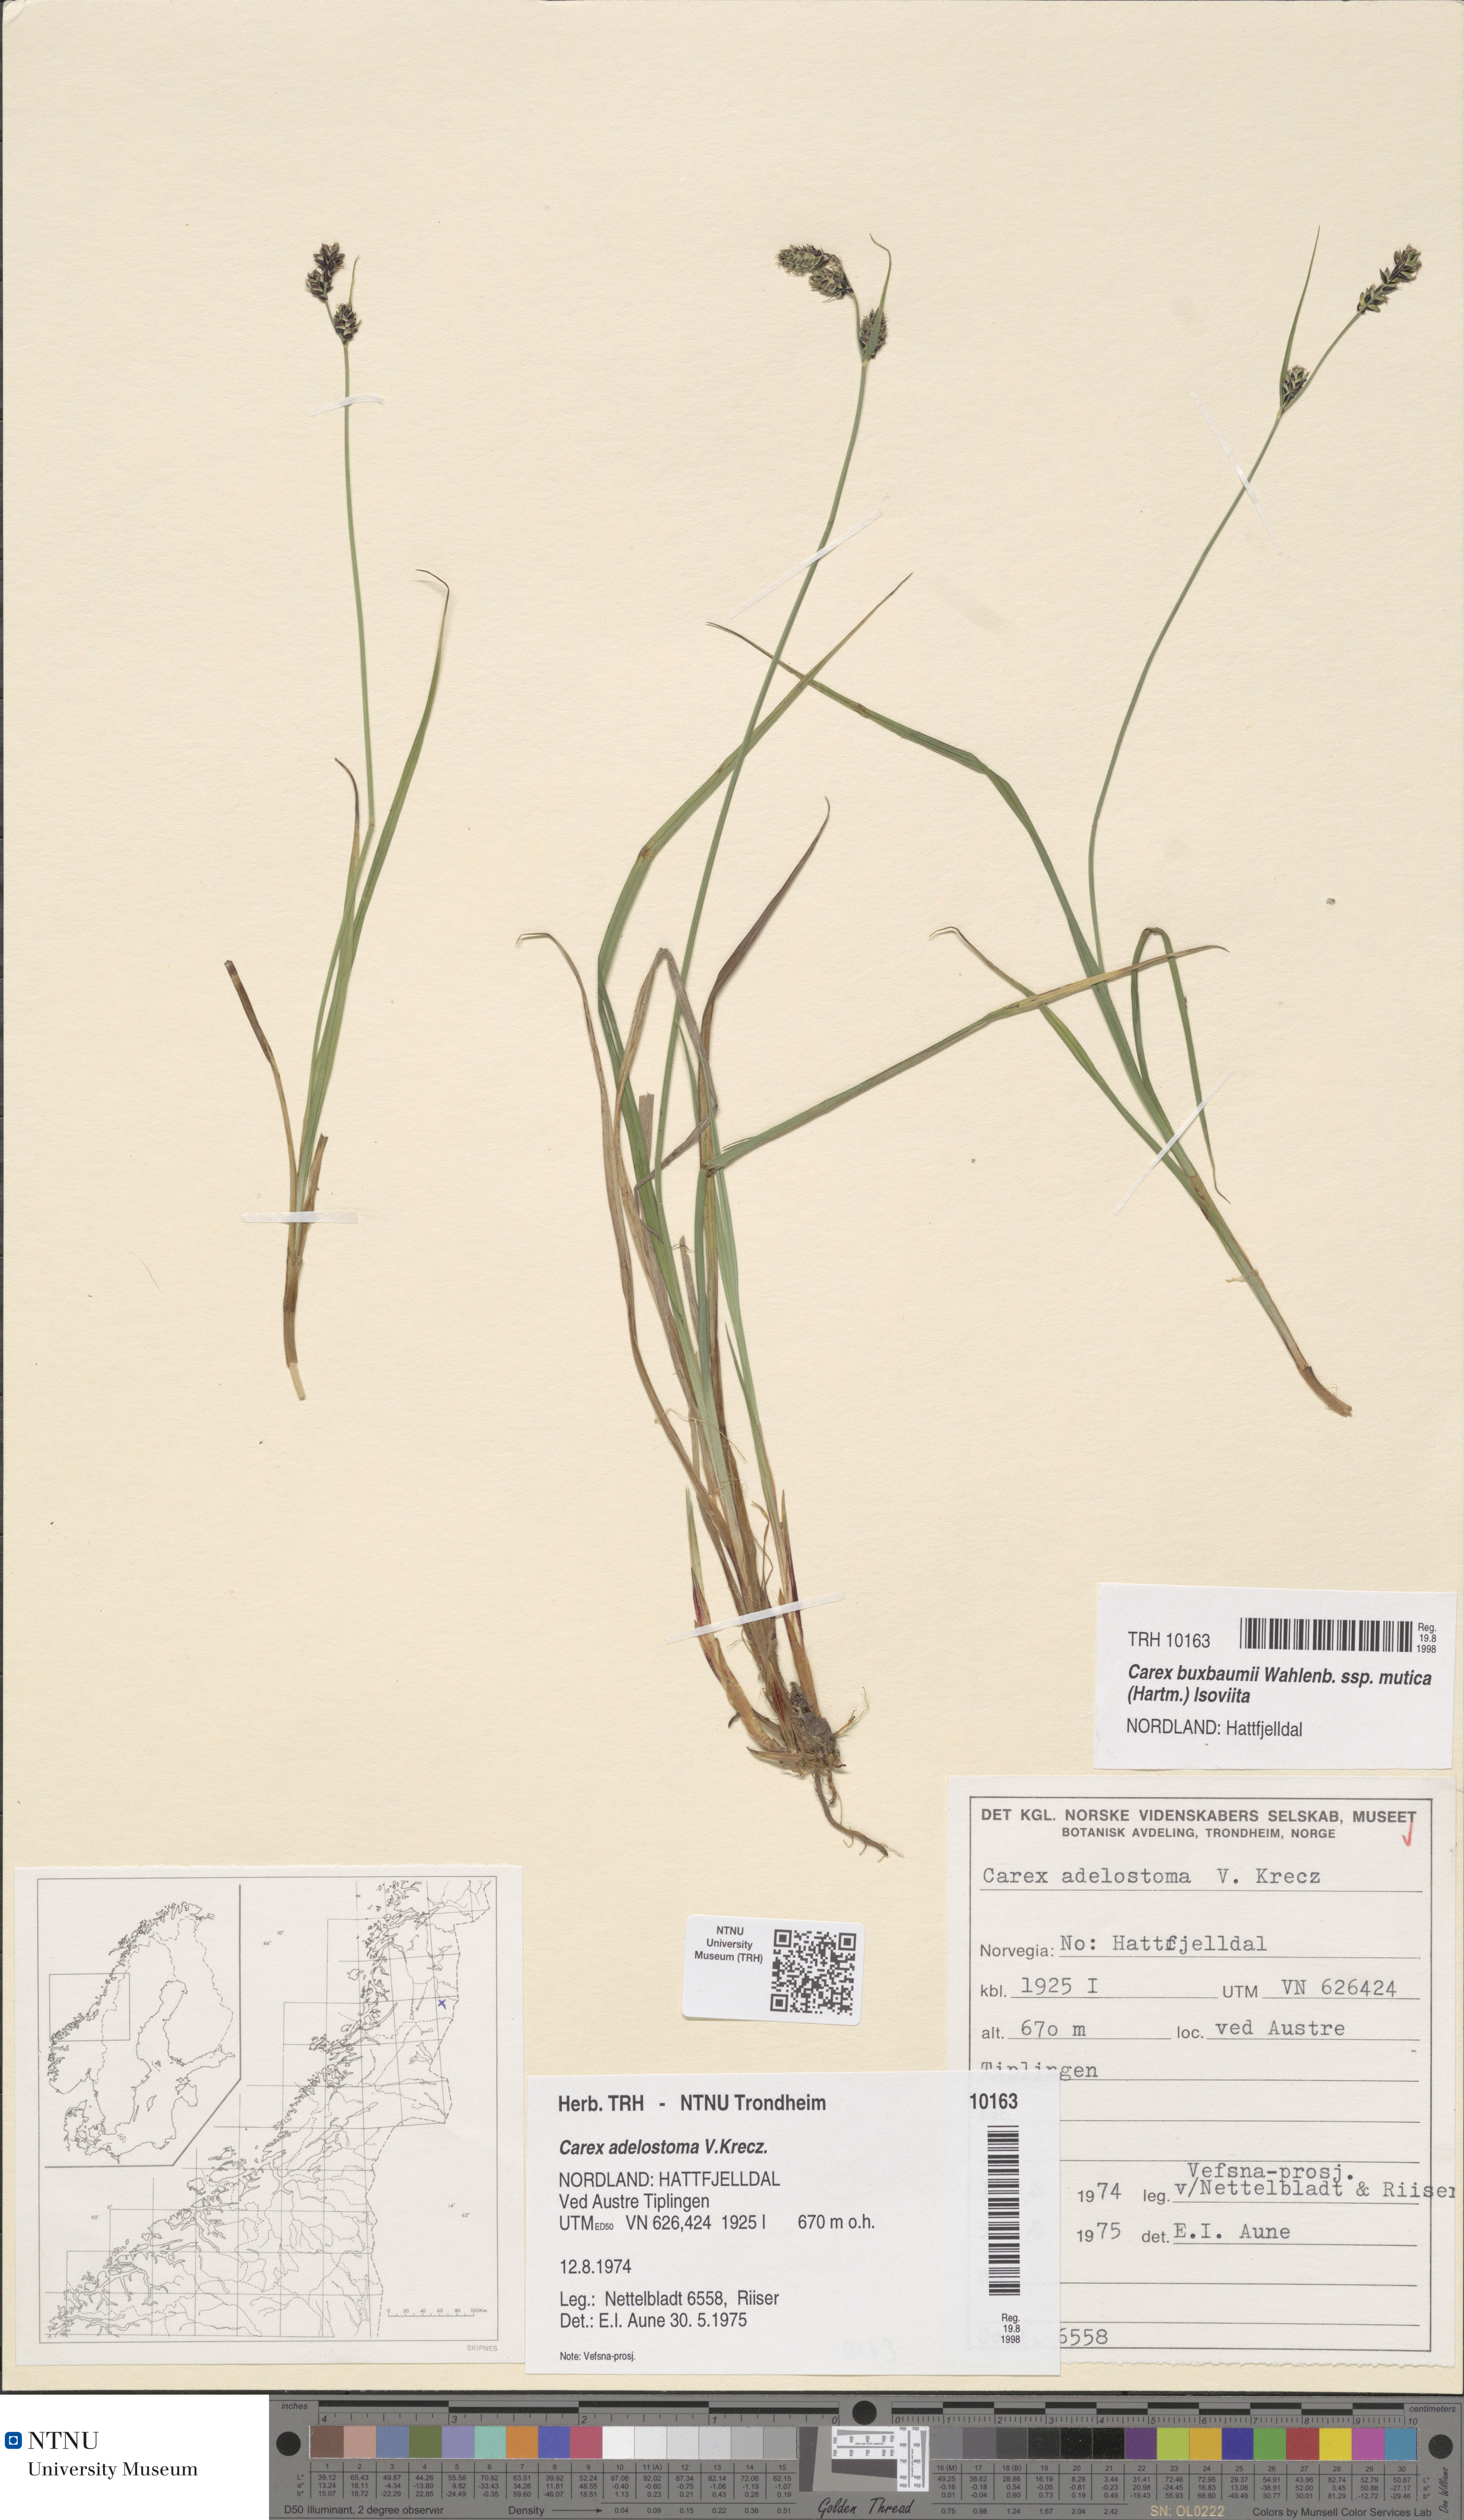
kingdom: Plantae
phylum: Tracheophyta
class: Liliopsida
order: Poales
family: Cyperaceae
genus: Carex
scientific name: Carex adelostoma
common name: Circumpolar sedge
